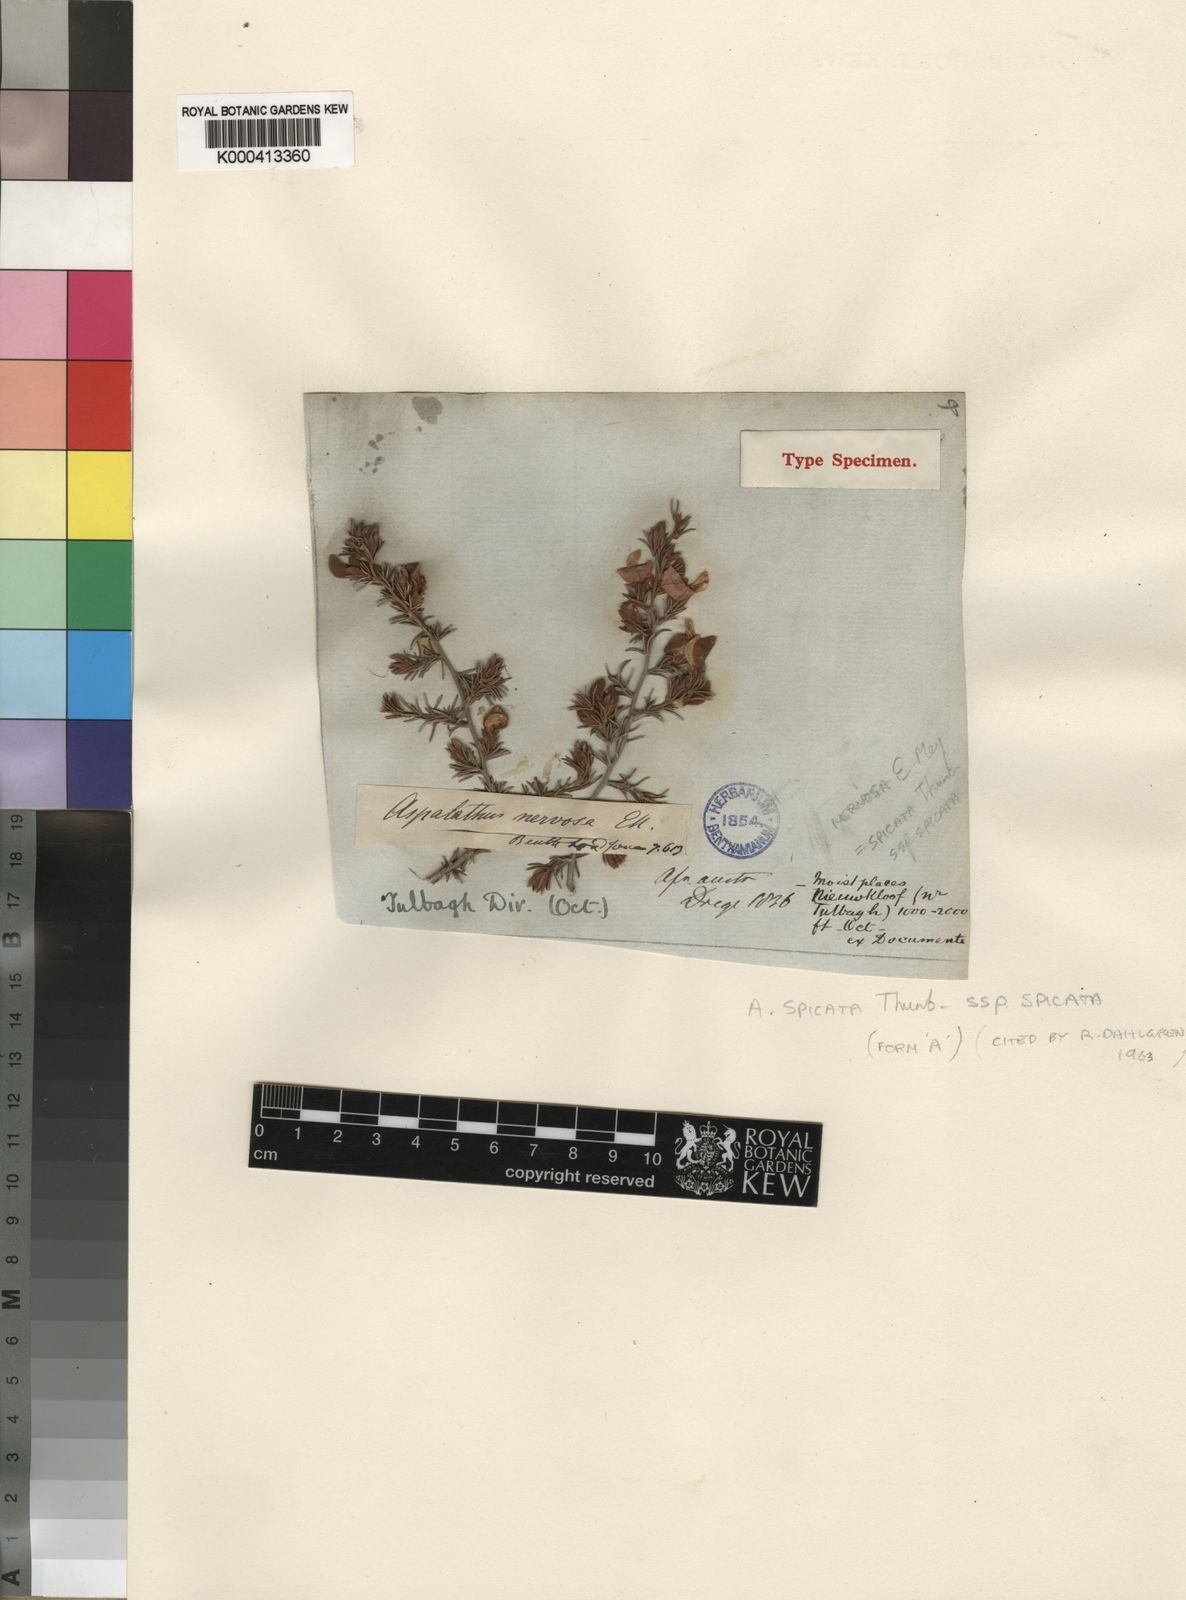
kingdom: Plantae
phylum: Tracheophyta
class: Magnoliopsida
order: Fabales
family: Fabaceae
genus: Aspalathus
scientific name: Aspalathus spicata
